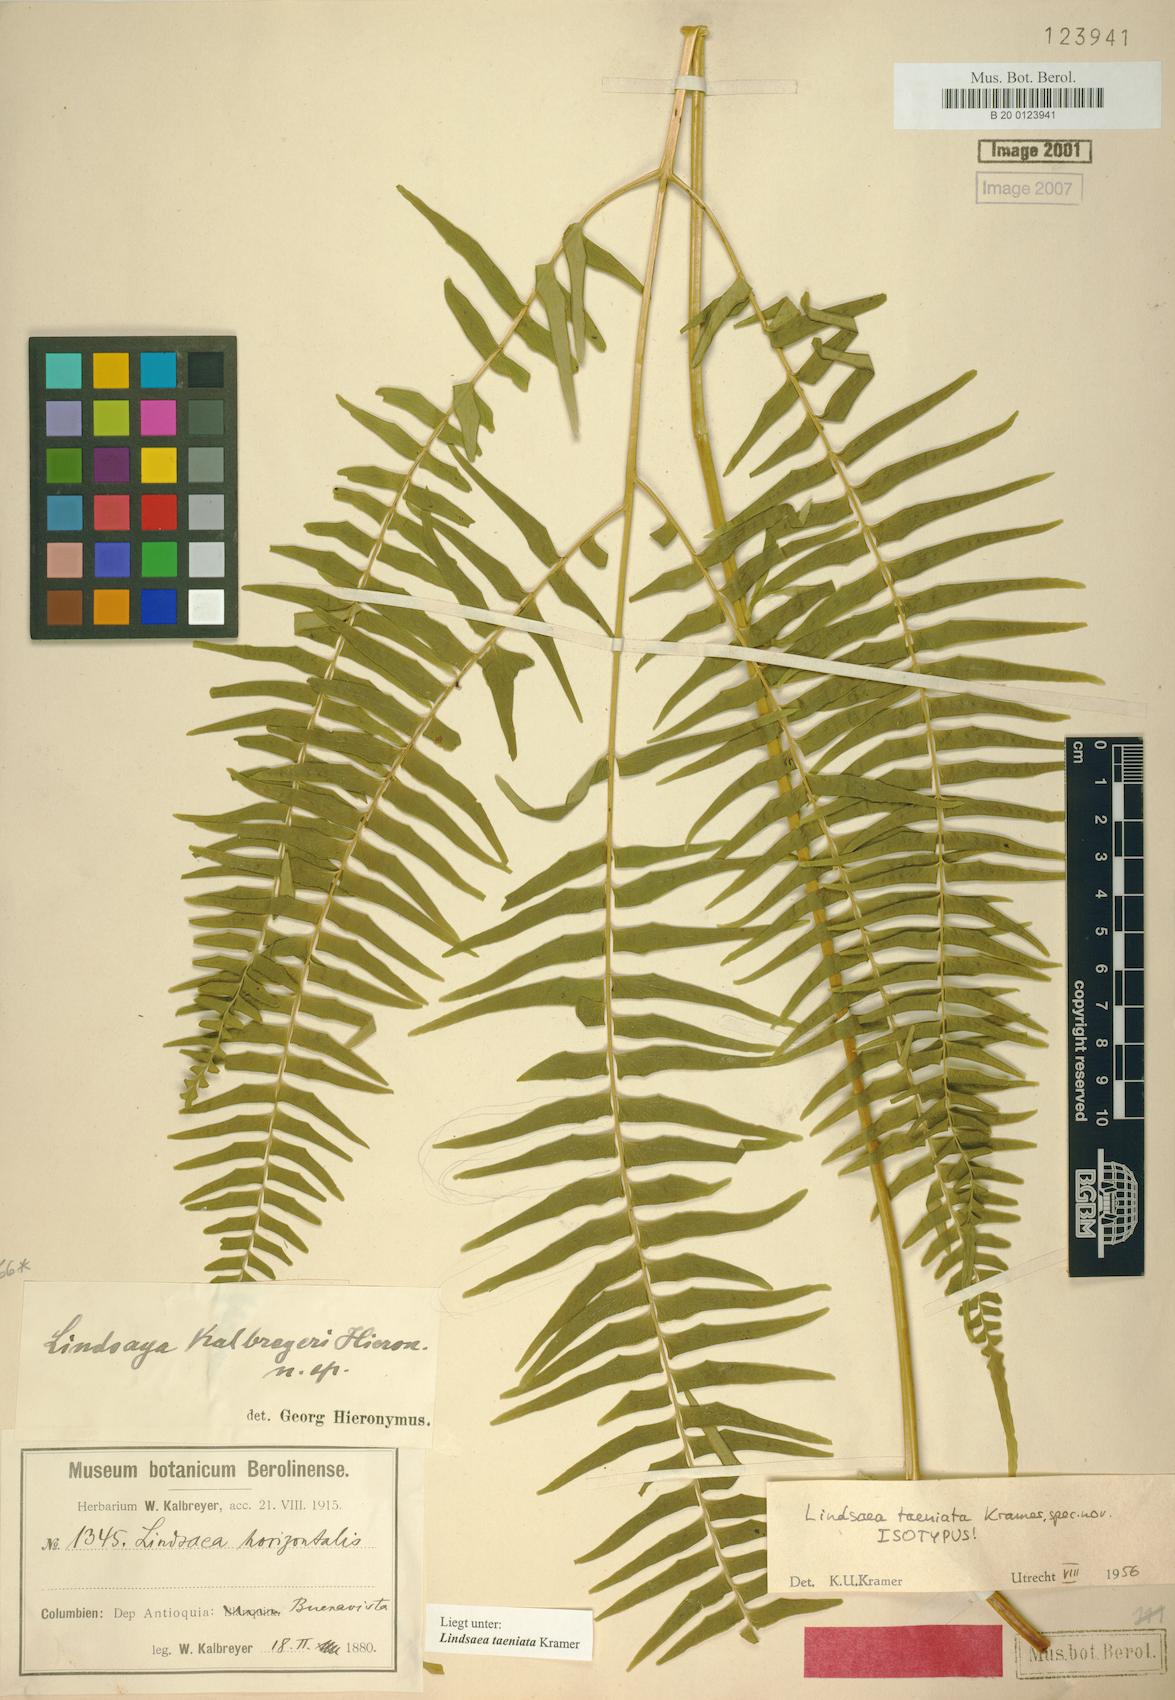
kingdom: Plantae
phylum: Tracheophyta
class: Polypodiopsida
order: Polypodiales
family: Lindsaeaceae
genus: Lindsaea
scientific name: Lindsaea taeniata
